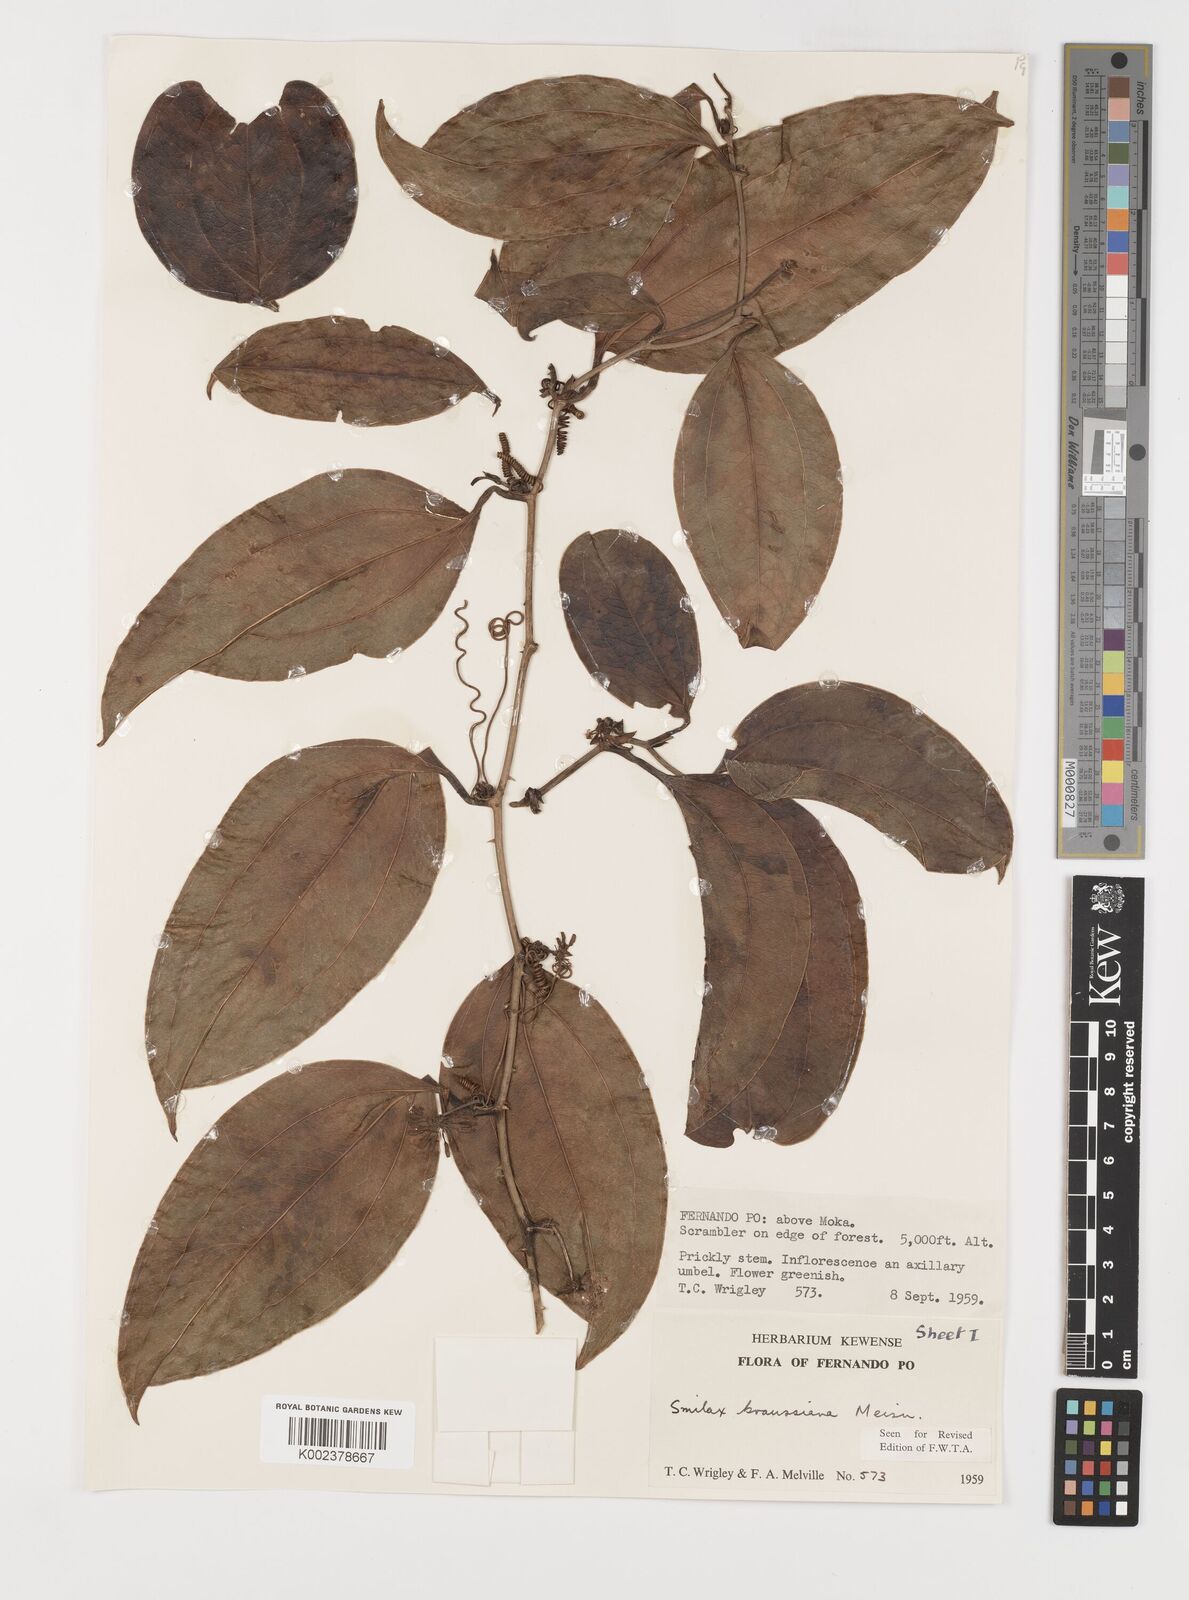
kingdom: Plantae
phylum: Tracheophyta
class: Liliopsida
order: Liliales
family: Smilacaceae
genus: Smilax
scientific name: Smilax anceps
